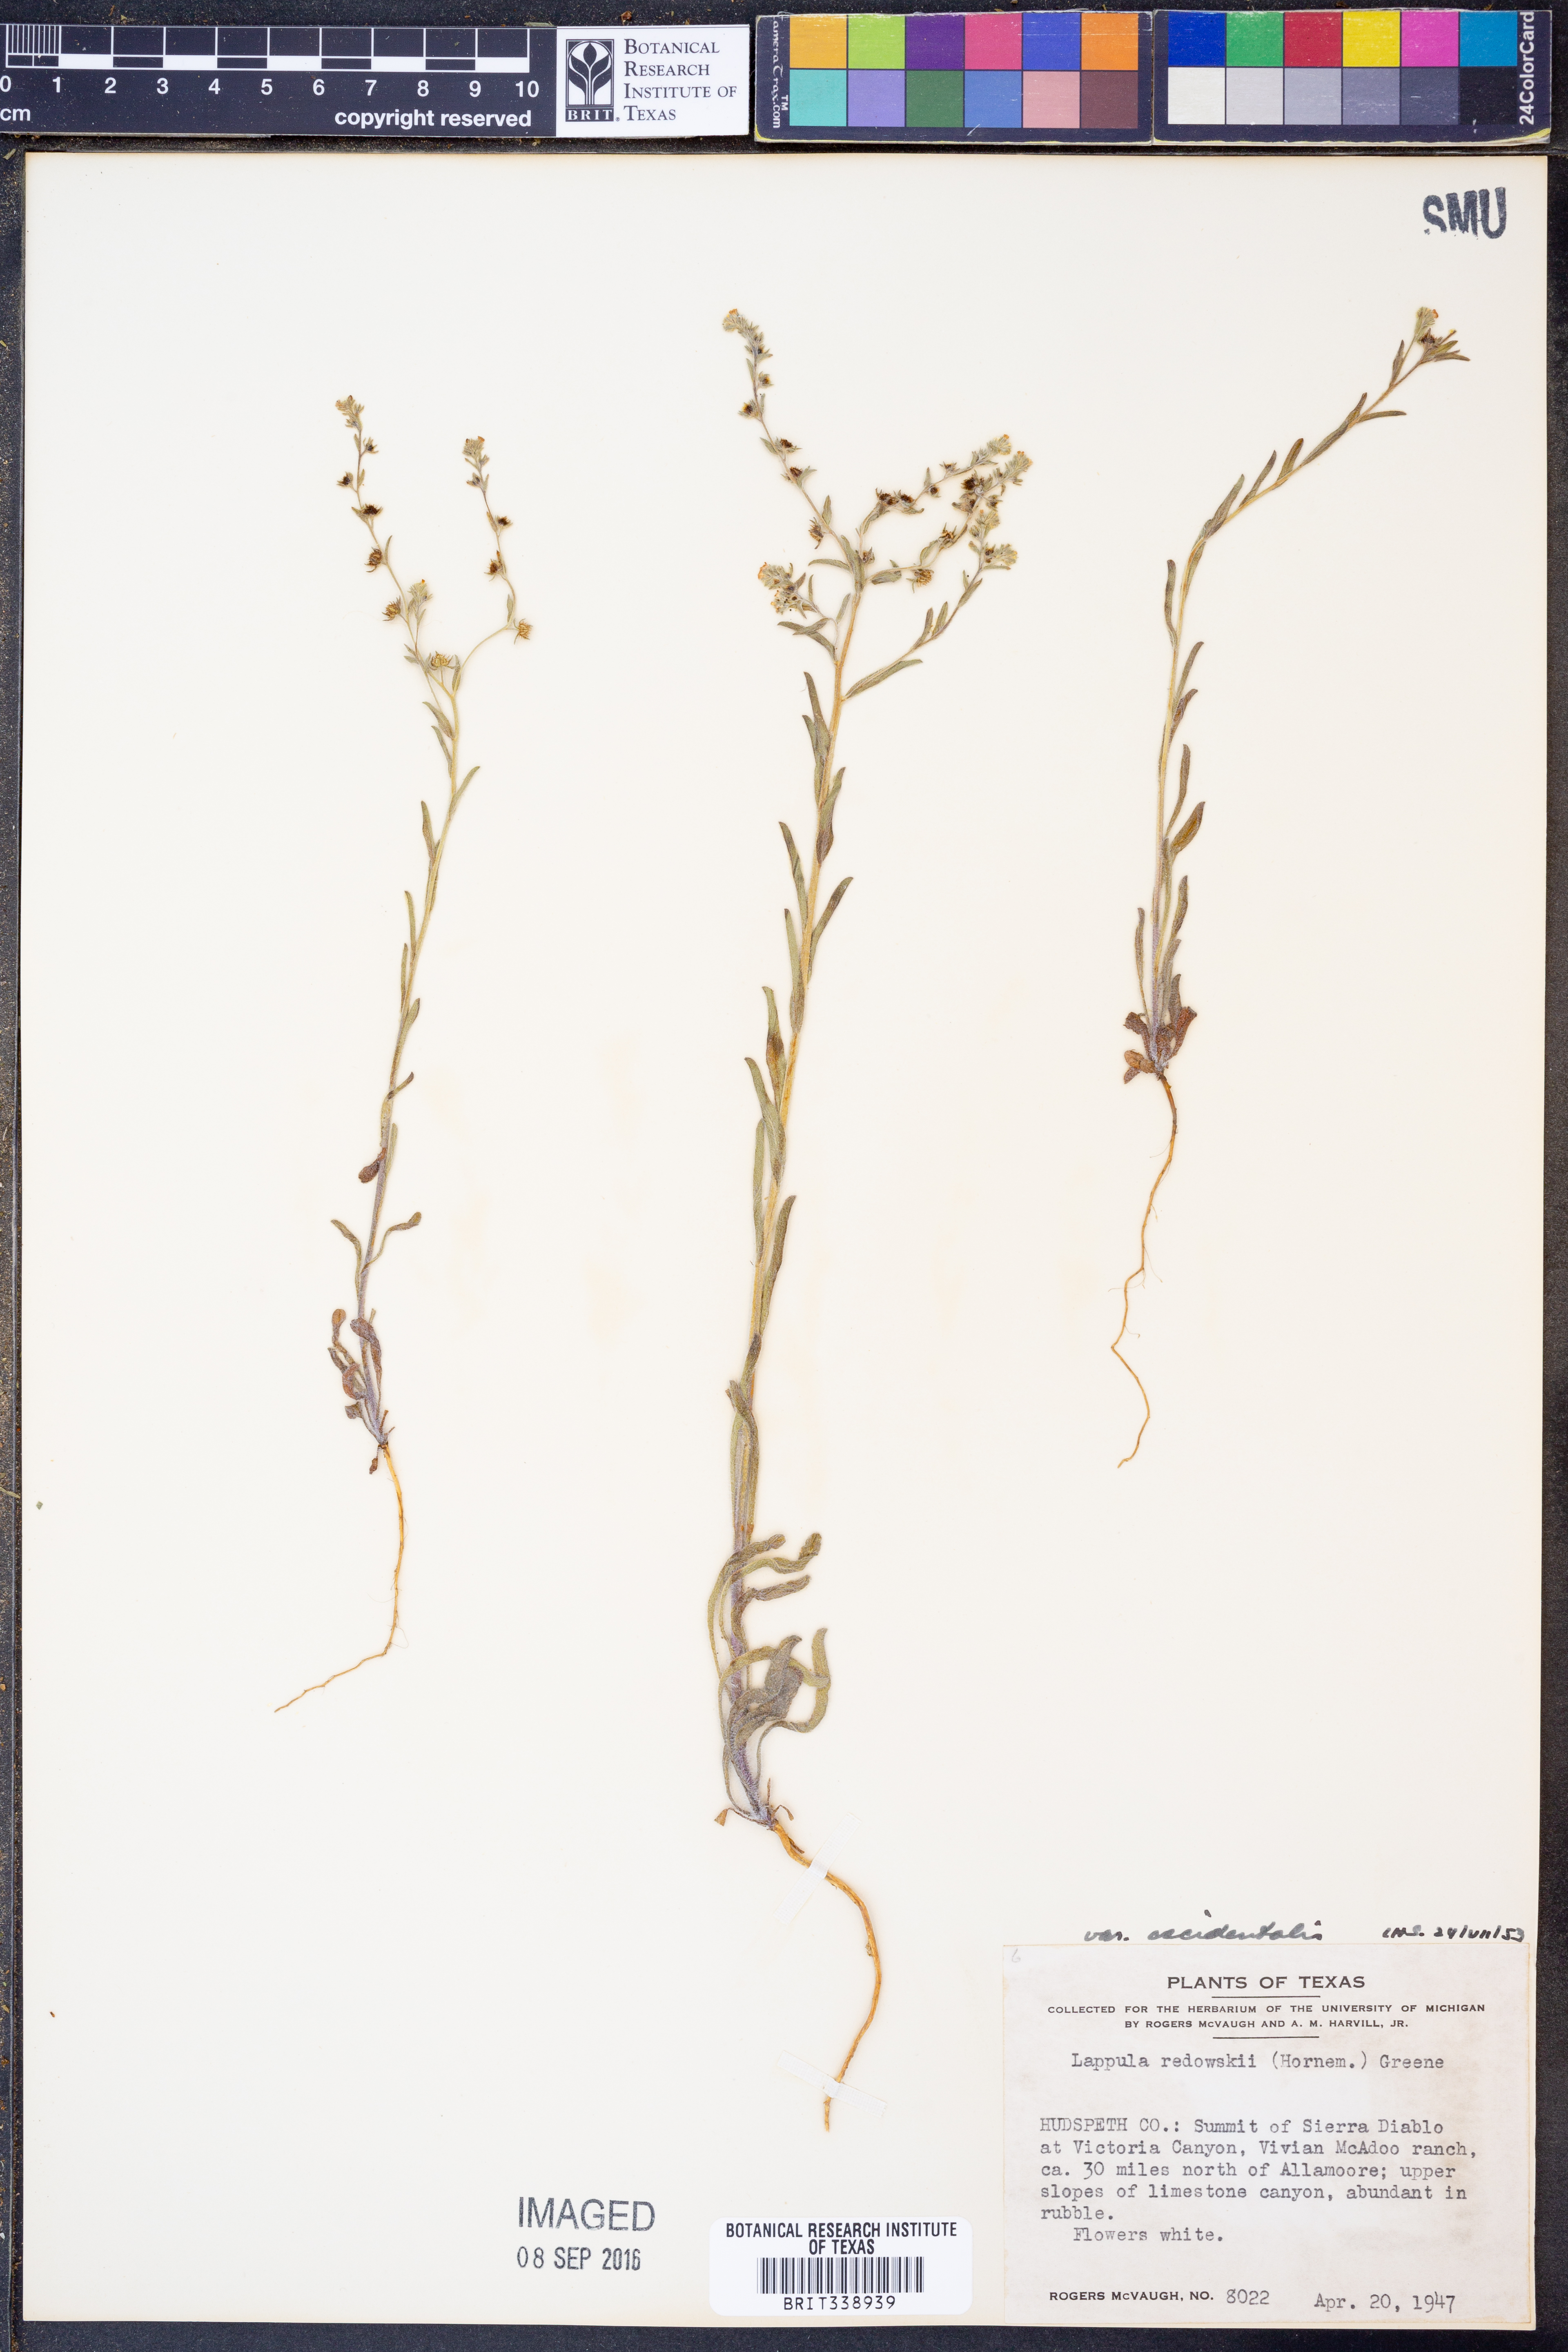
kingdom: Plantae
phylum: Tracheophyta
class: Magnoliopsida
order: Boraginales
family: Boraginaceae
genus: Lappula
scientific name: Lappula occidentalis
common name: Western stickseed
